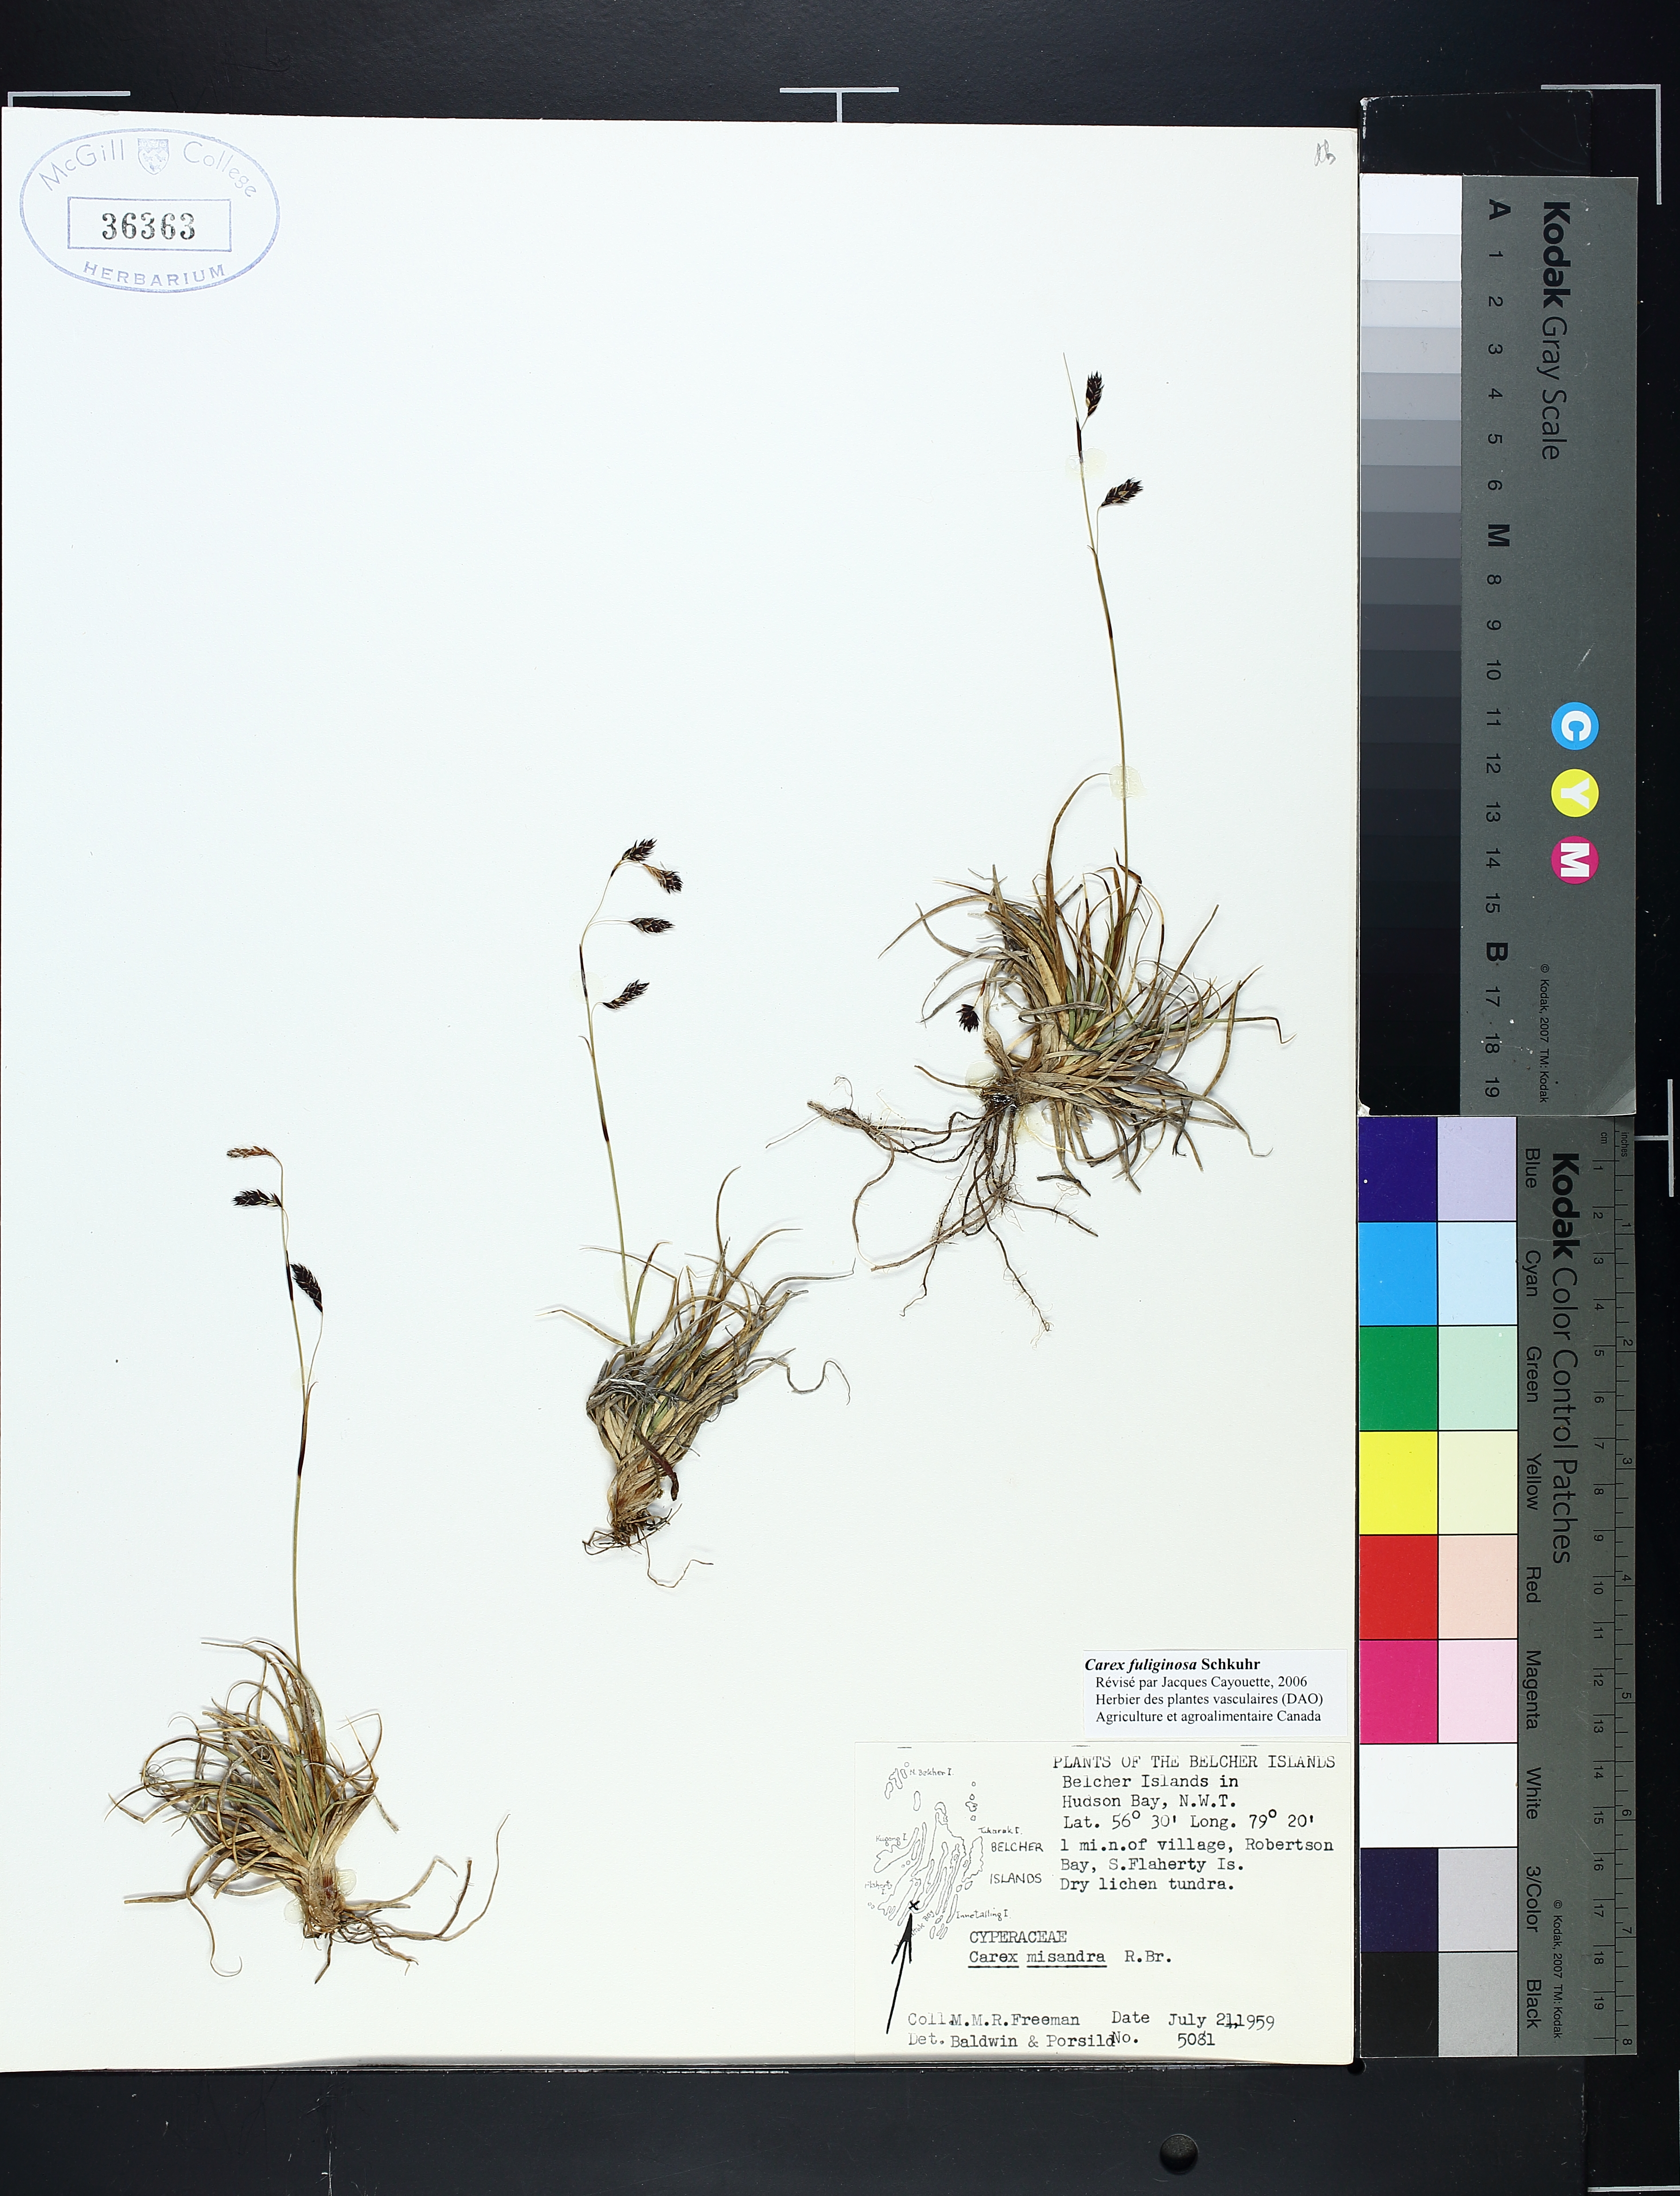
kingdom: Plantae
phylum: Tracheophyta
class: Liliopsida
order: Poales
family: Cyperaceae
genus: Carex
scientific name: Carex fuliginosa
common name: Few-flowered sedge
